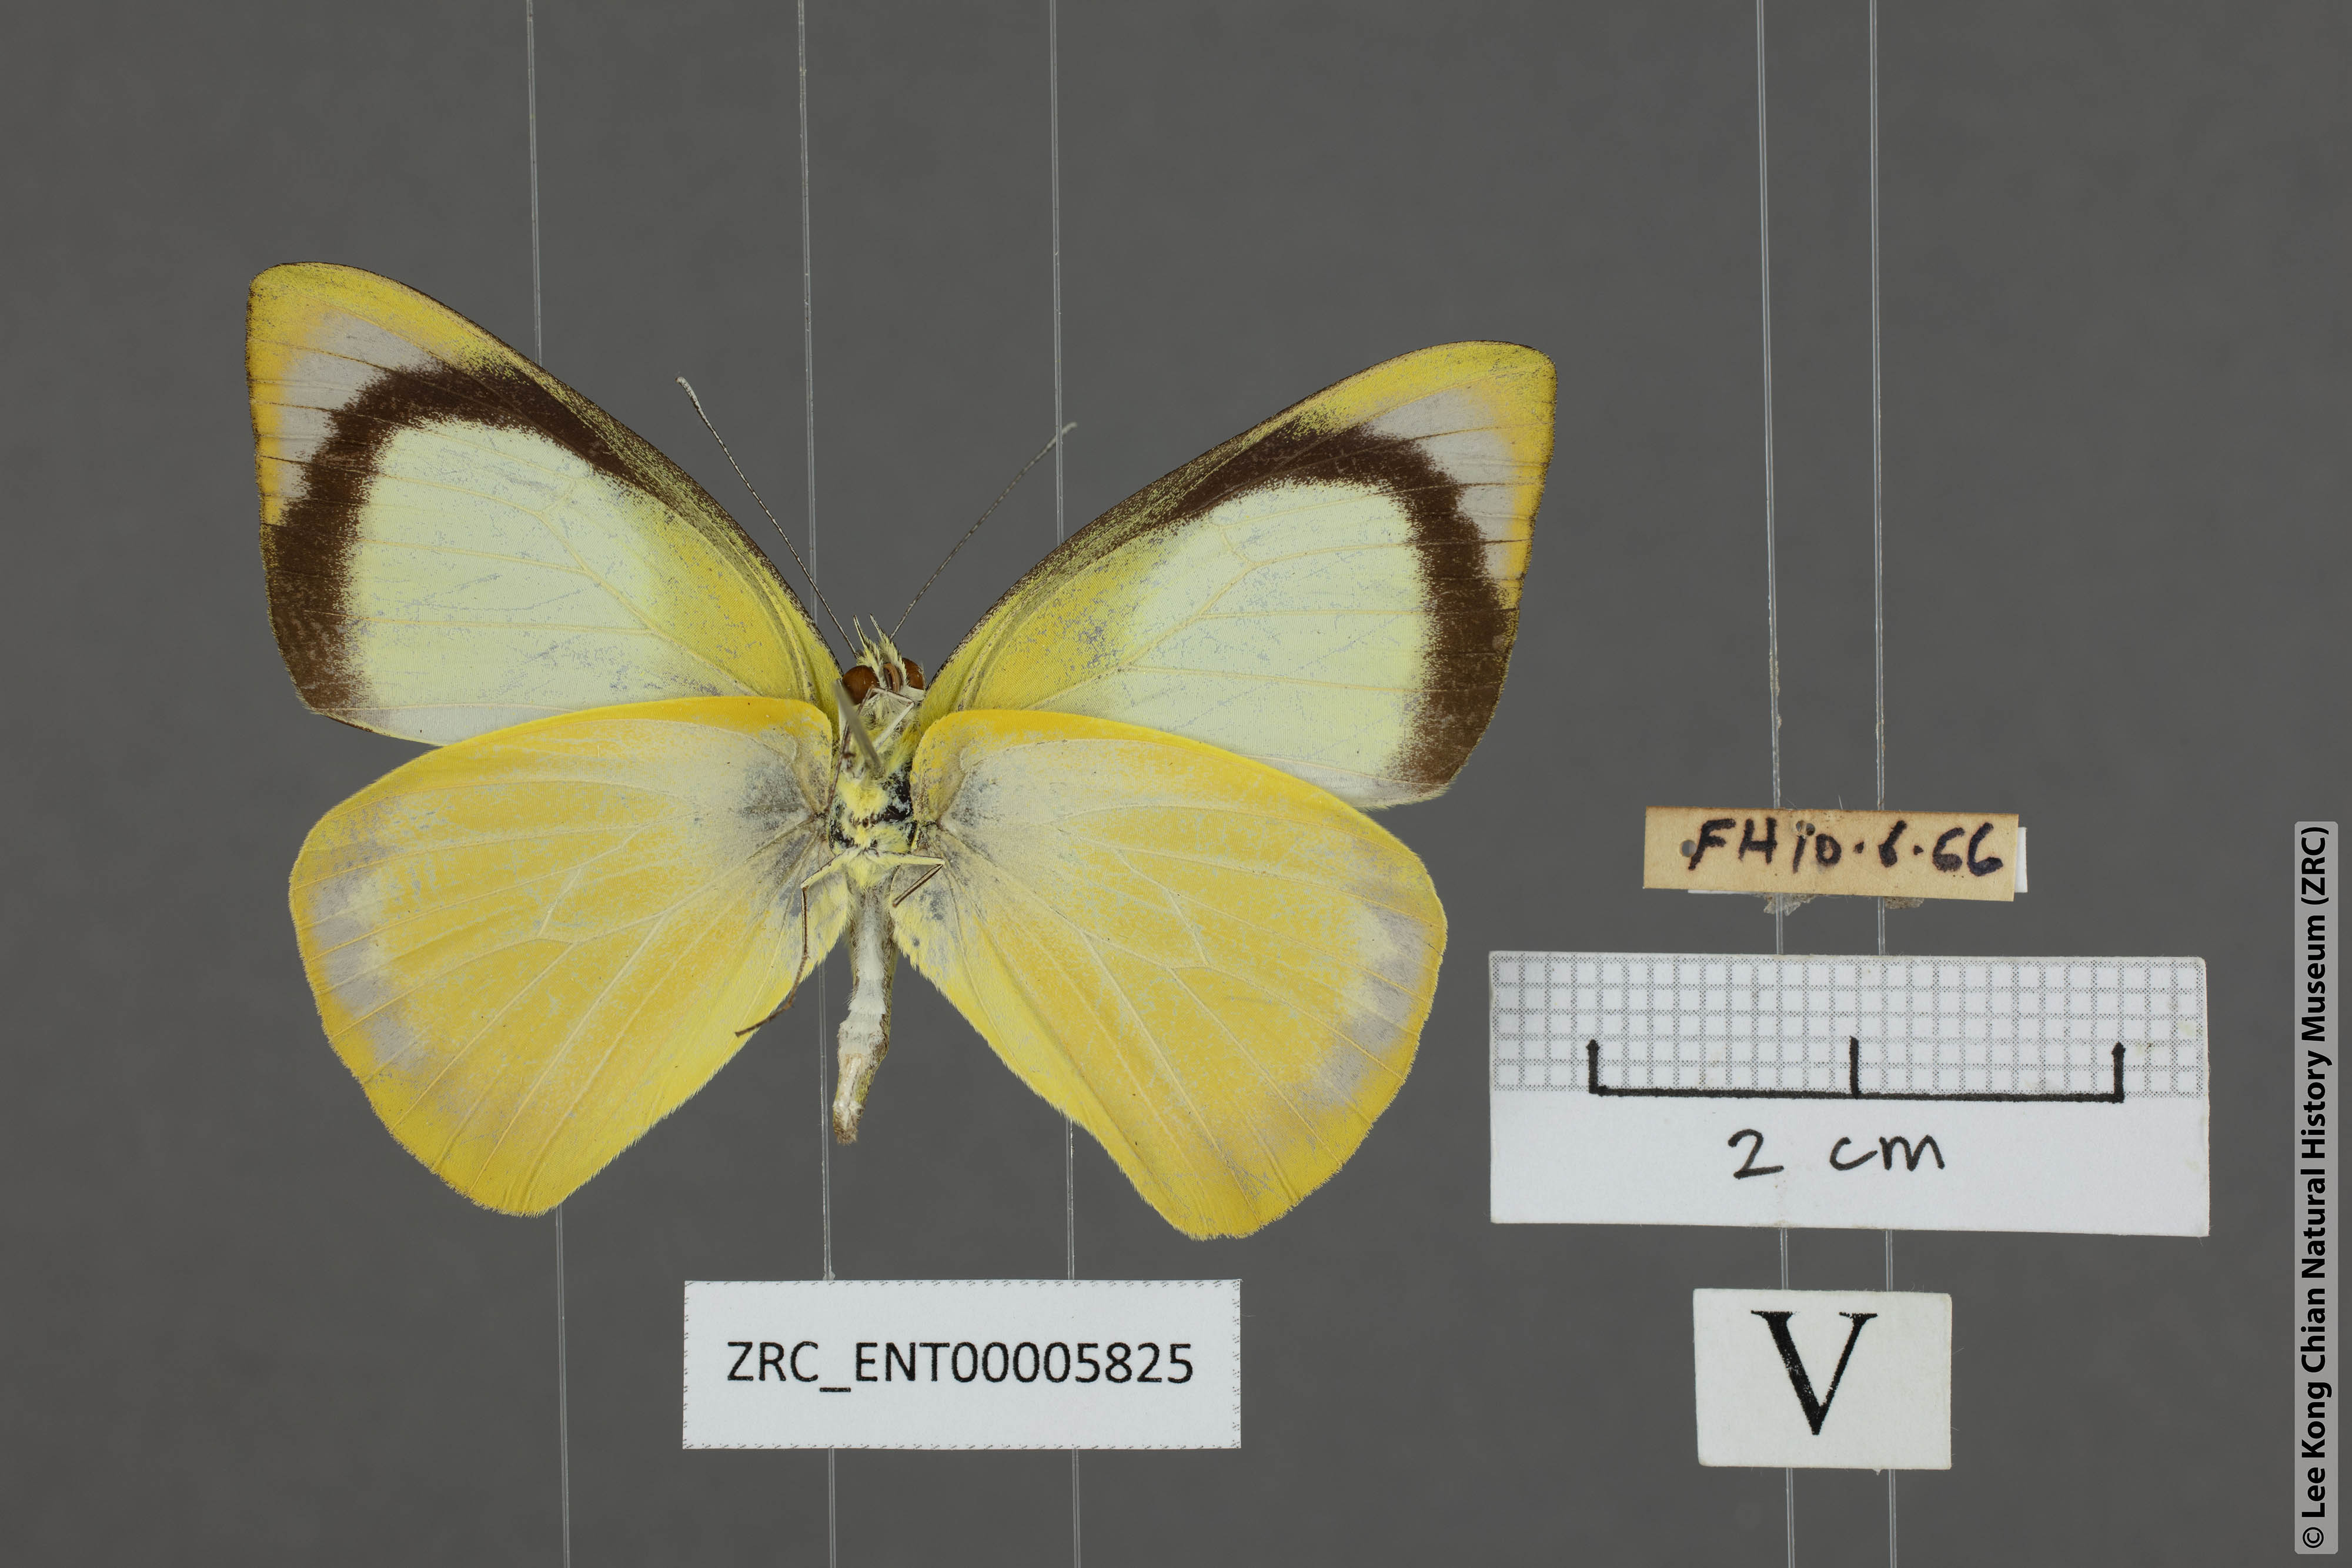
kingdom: Animalia
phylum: Arthropoda
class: Insecta
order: Lepidoptera
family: Pieridae
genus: Saletara
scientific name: Saletara liberia
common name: Pointed albatross
